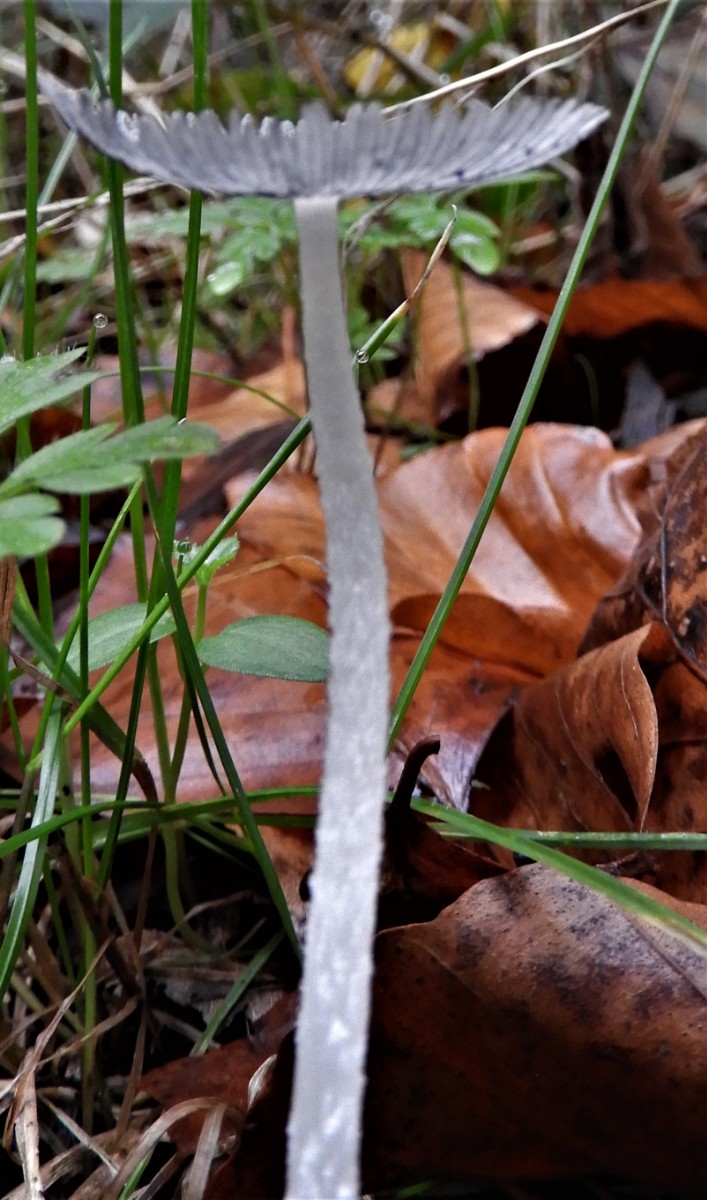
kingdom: Fungi
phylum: Basidiomycota
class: Agaricomycetes
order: Agaricales
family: Psathyrellaceae
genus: Coprinopsis
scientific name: Coprinopsis lagopus
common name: dunstokket blækhat
